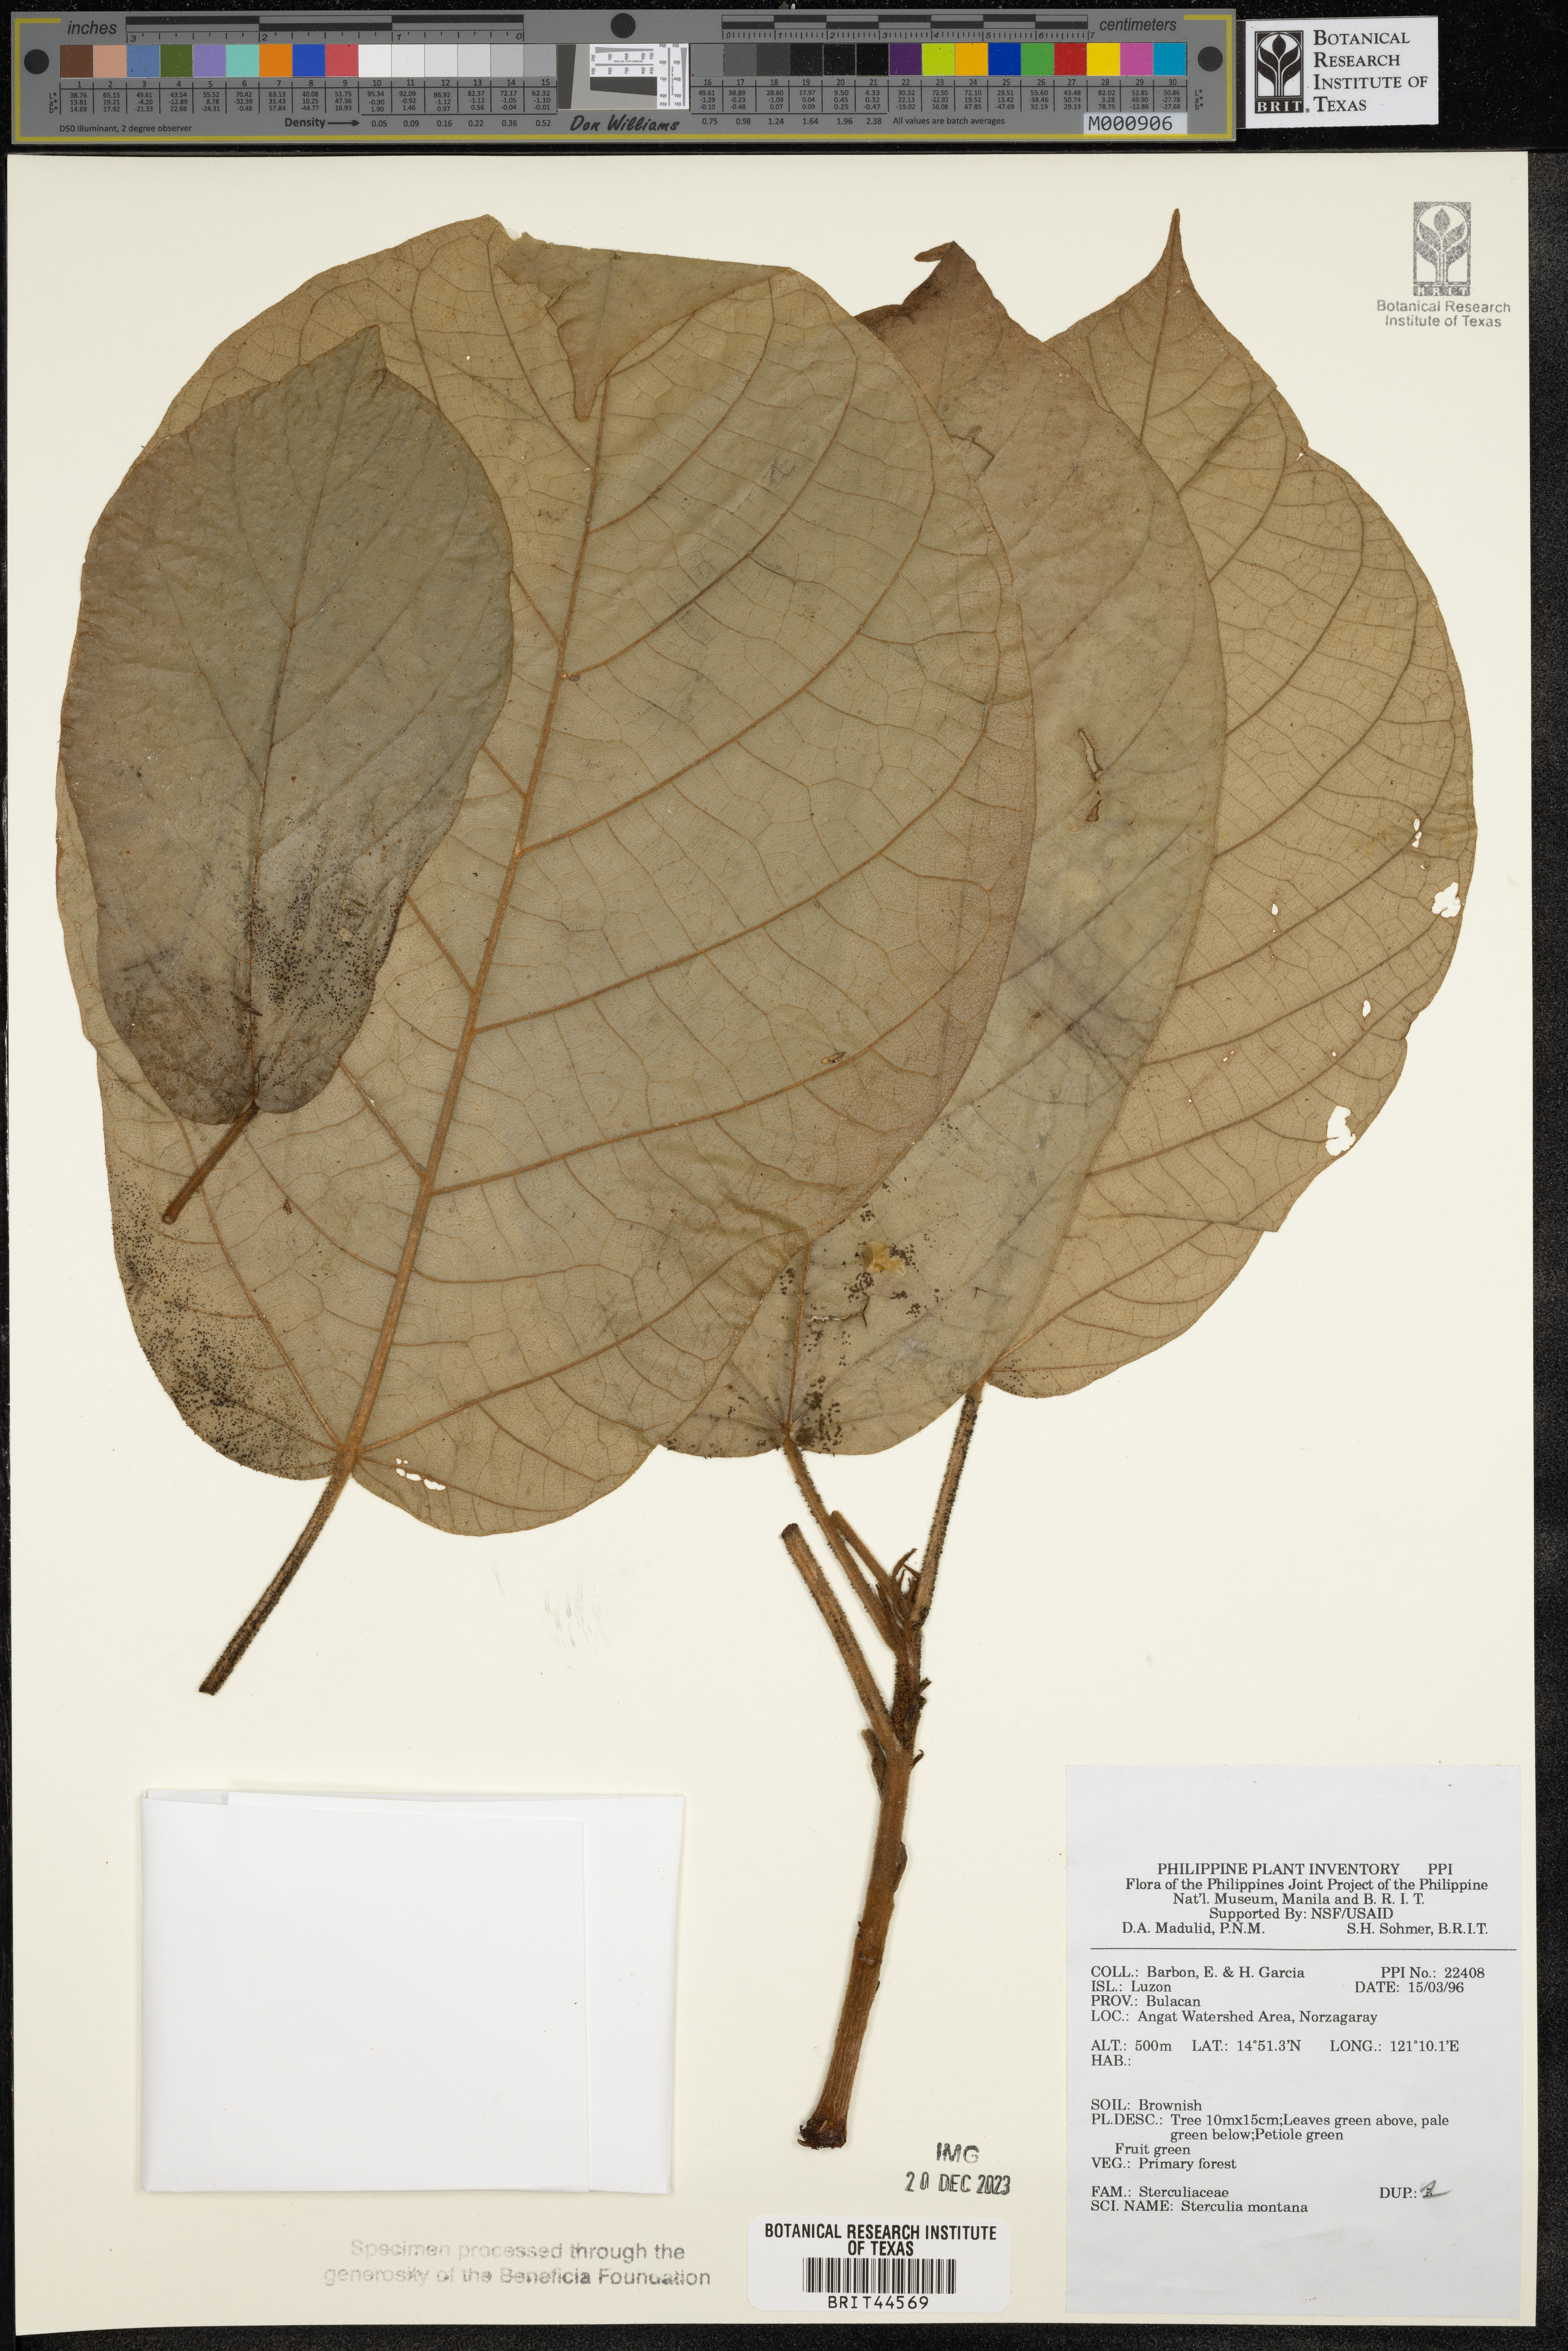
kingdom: Plantae
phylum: Tracheophyta
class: Magnoliopsida
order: Malvales
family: Malvaceae
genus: Sterculia
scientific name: Sterculia cordata
